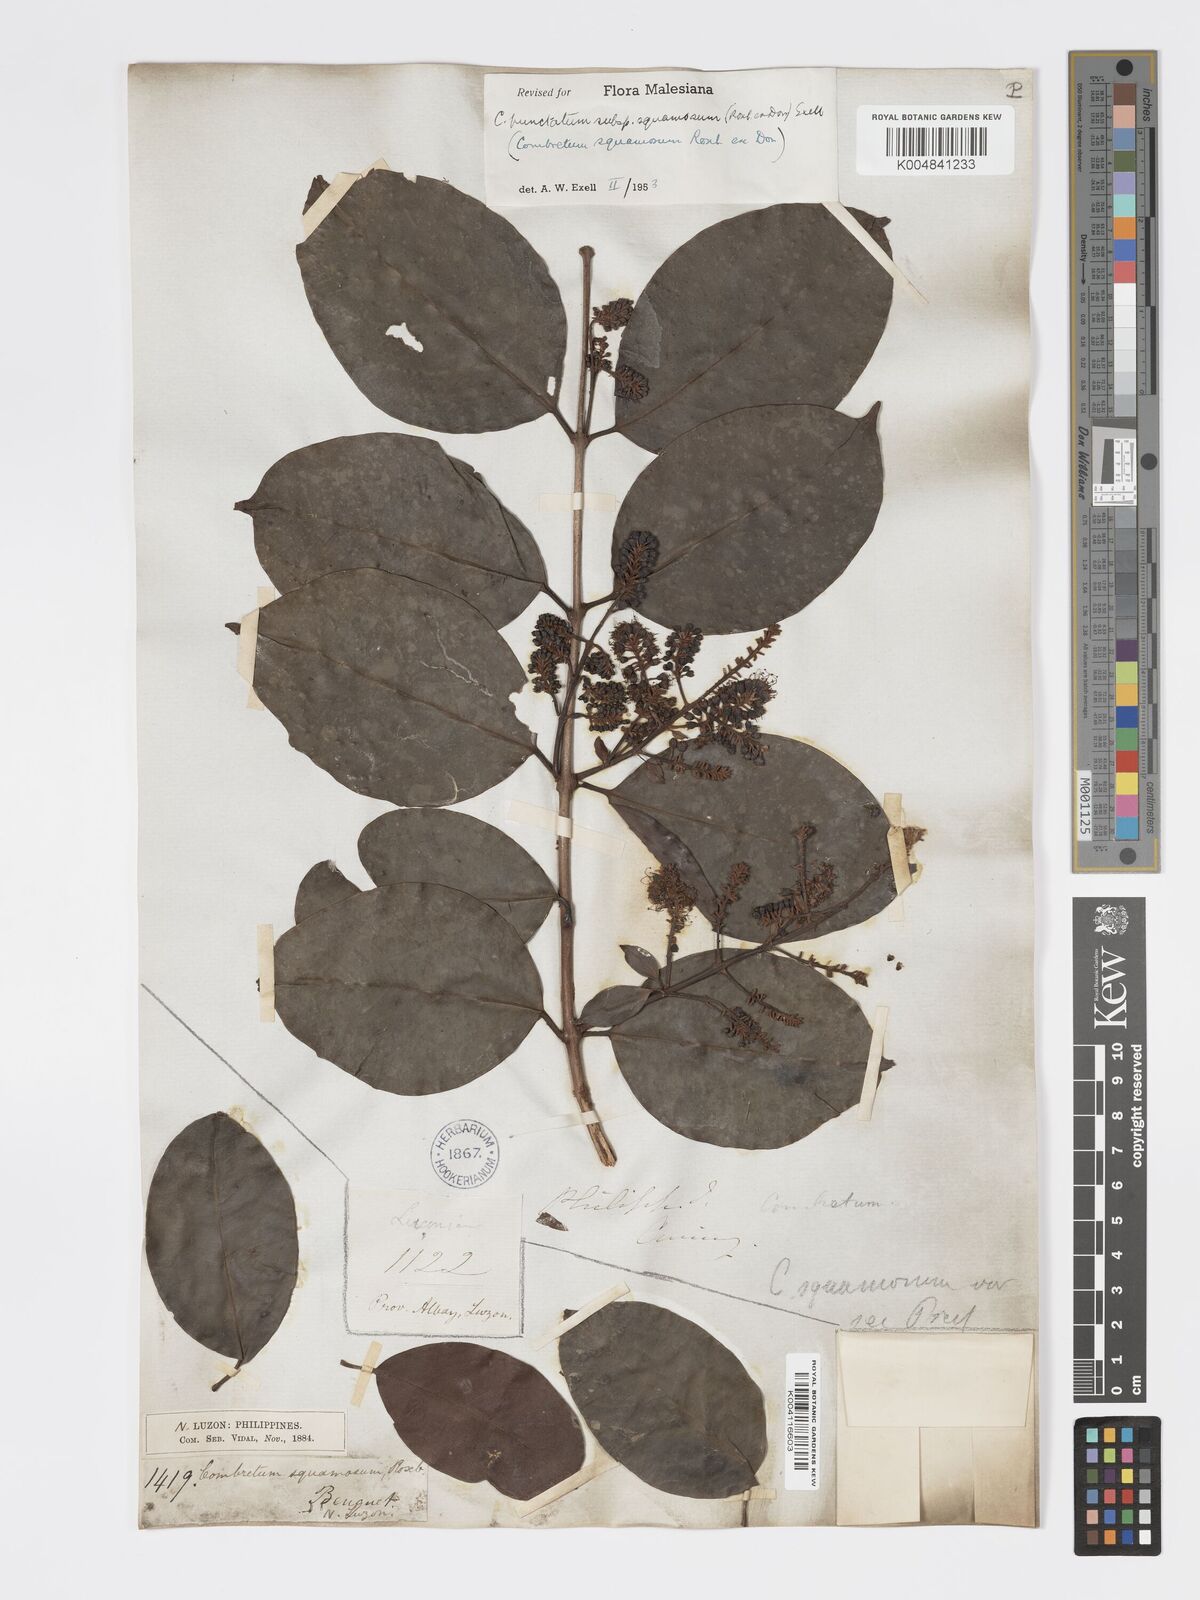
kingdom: Plantae
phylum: Tracheophyta
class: Magnoliopsida
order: Myrtales
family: Combretaceae
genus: Combretum
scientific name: Combretum
